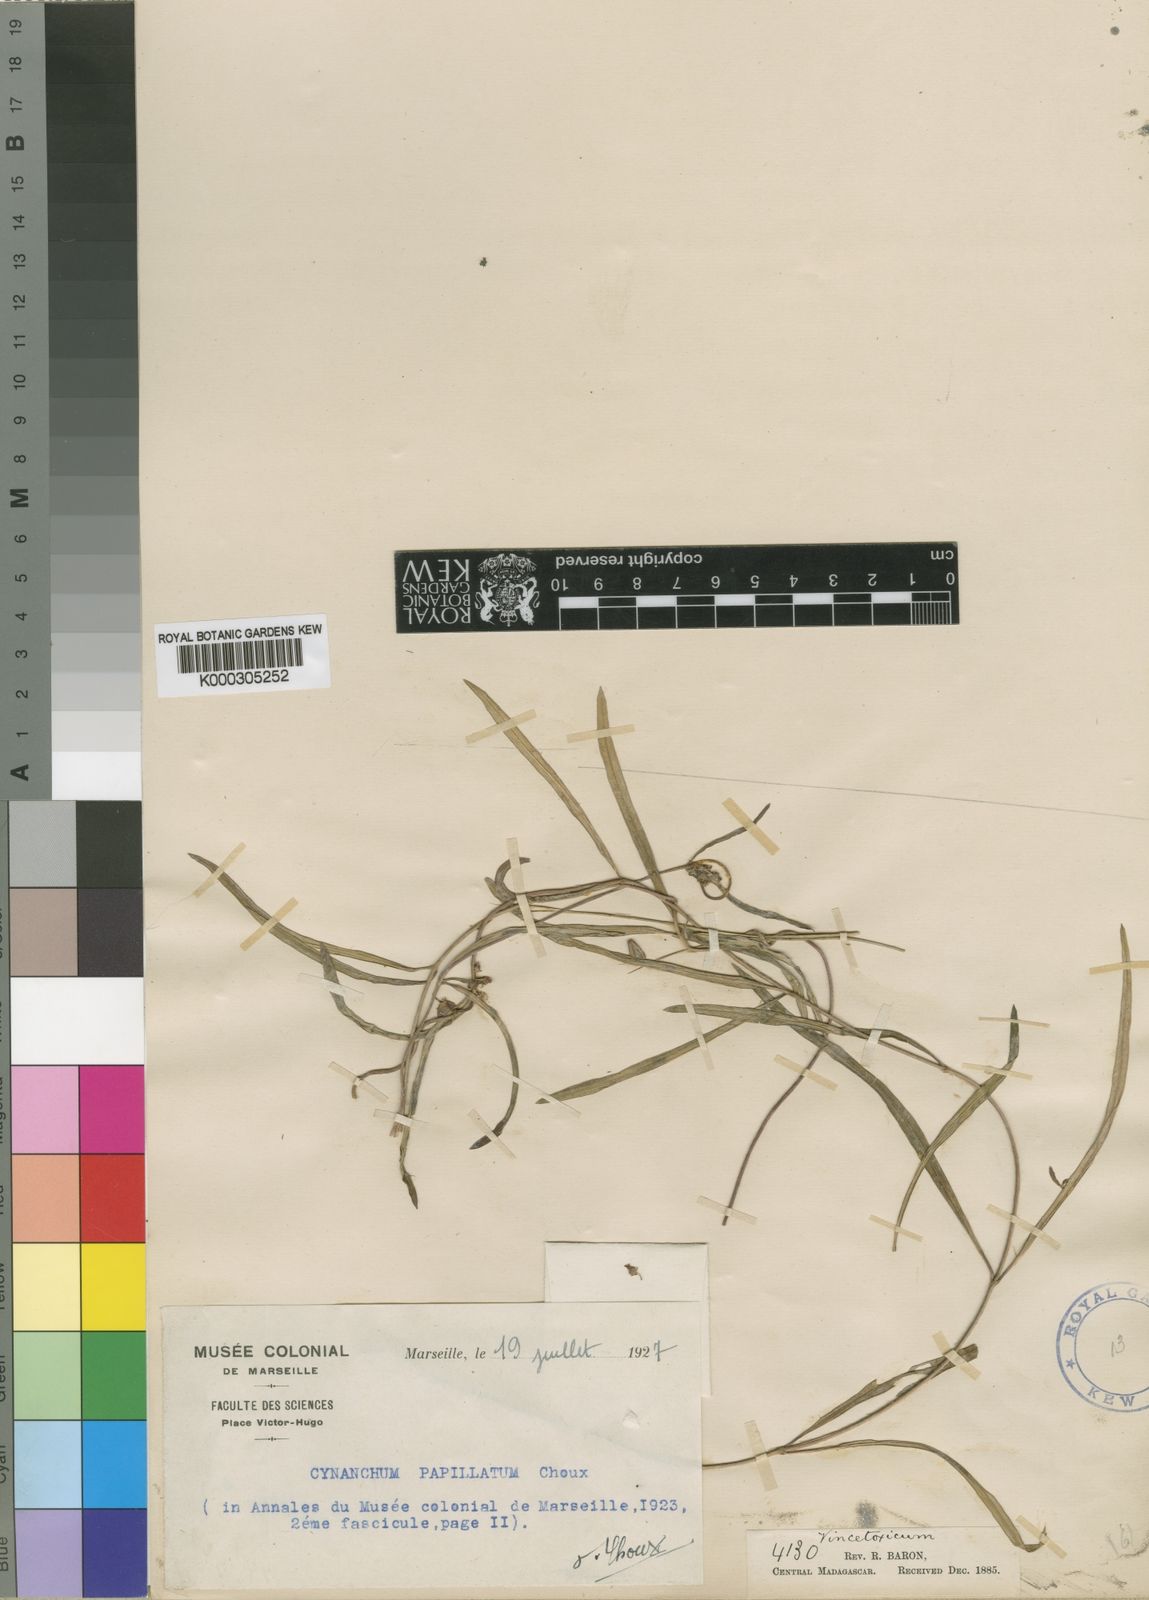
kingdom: Plantae
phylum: Tracheophyta
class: Magnoliopsida
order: Gentianales
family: Apocynaceae
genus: Cynanchum
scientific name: Cynanchum papillatum
